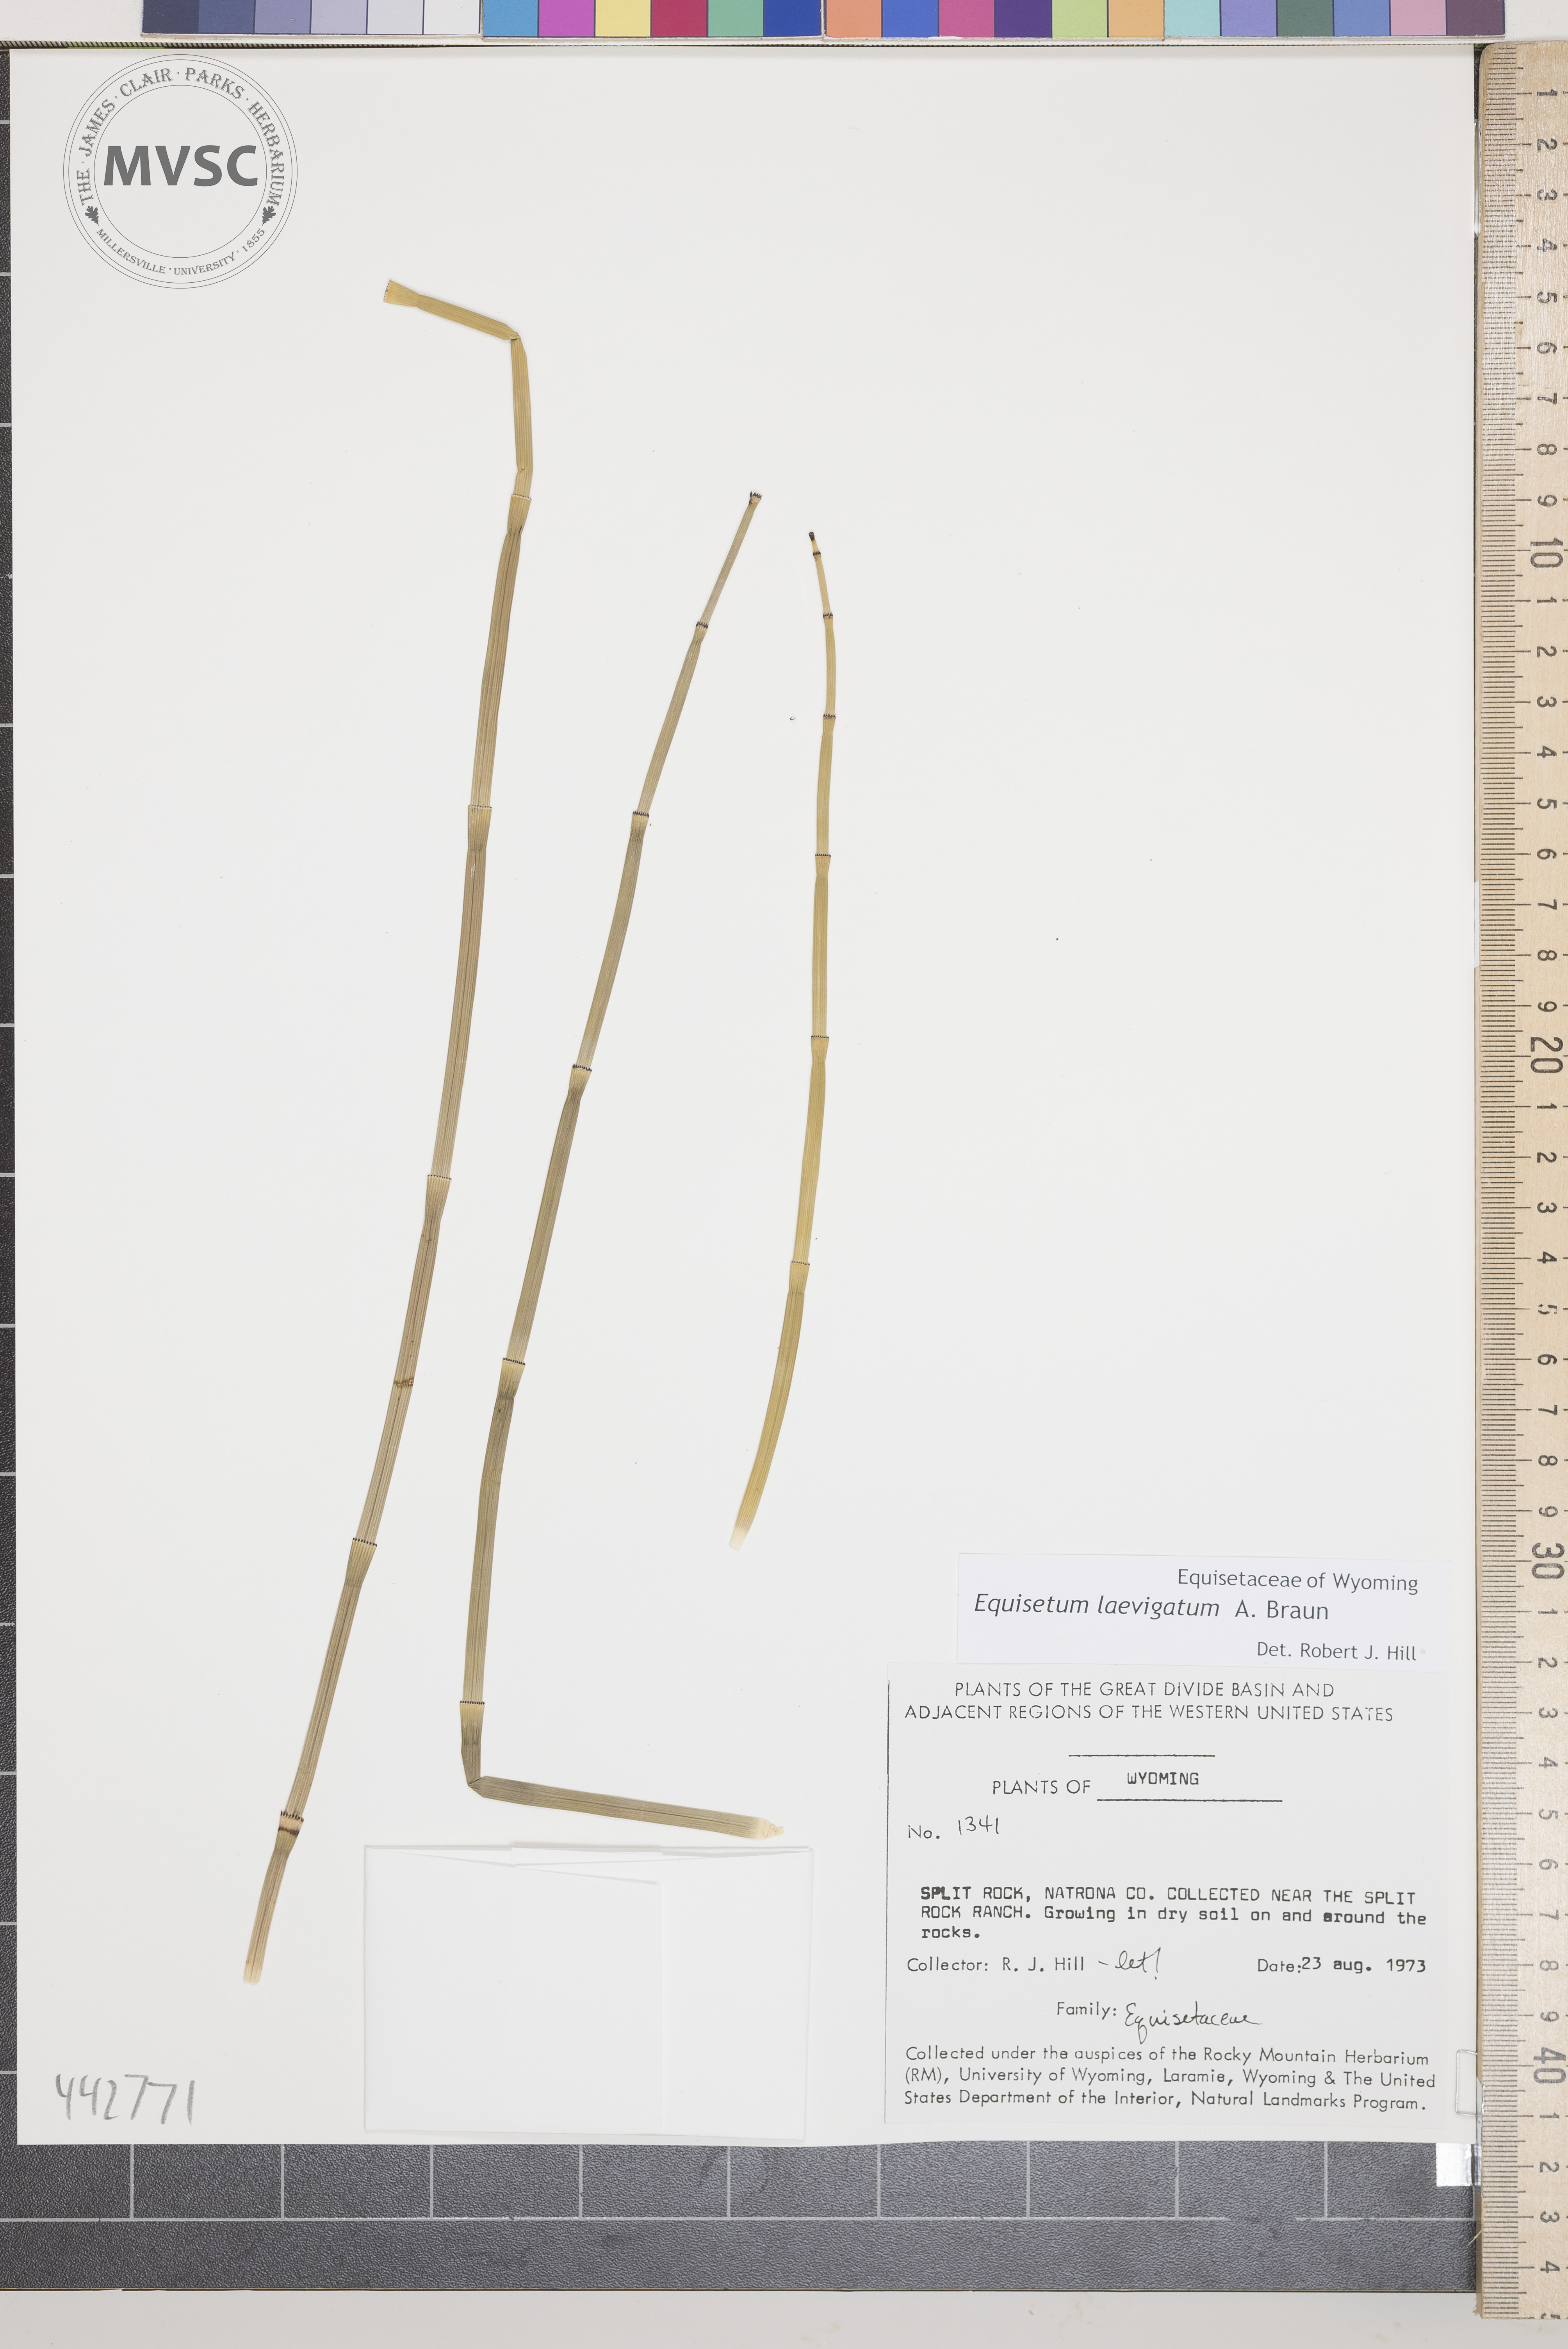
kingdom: Plantae
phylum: Tracheophyta
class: Polypodiopsida
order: Equisetales
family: Equisetaceae
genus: Equisetum
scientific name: Equisetum laevigatum
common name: Smooth scouring-rush
